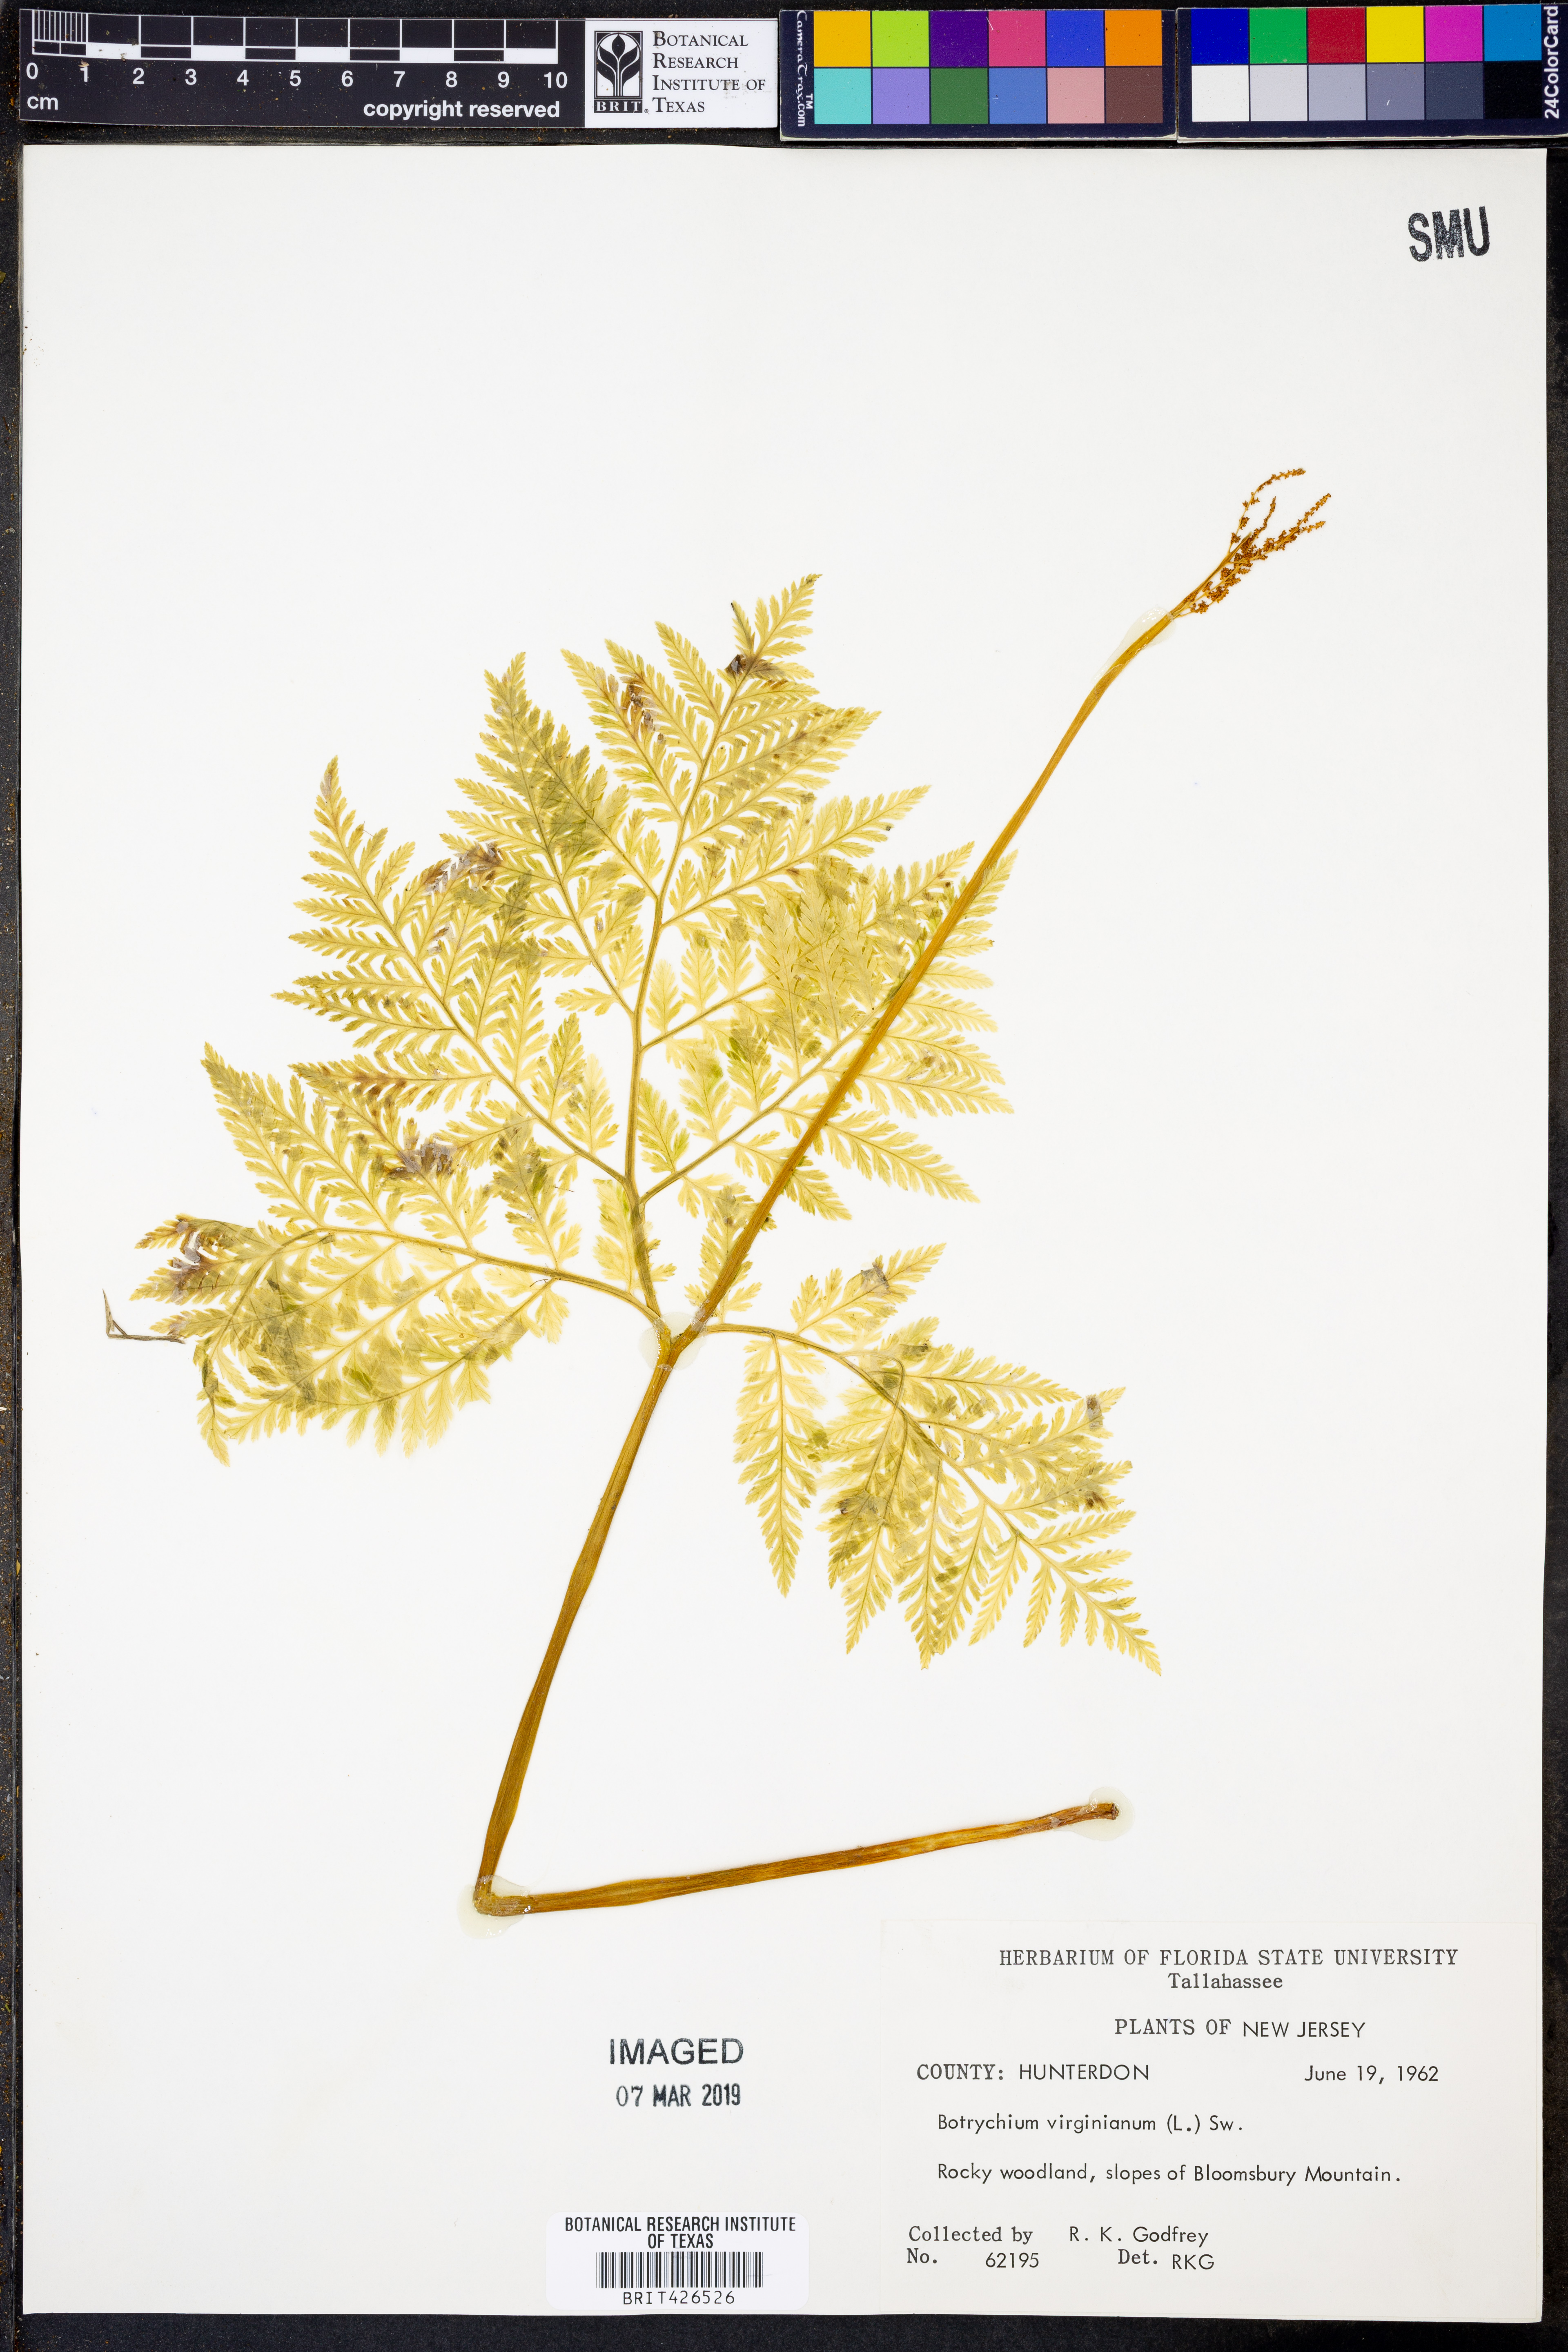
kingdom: Plantae
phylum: Tracheophyta
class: Polypodiopsida
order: Ophioglossales
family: Ophioglossaceae
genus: Botrypus
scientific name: Botrypus virginianus
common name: Common grapefern
